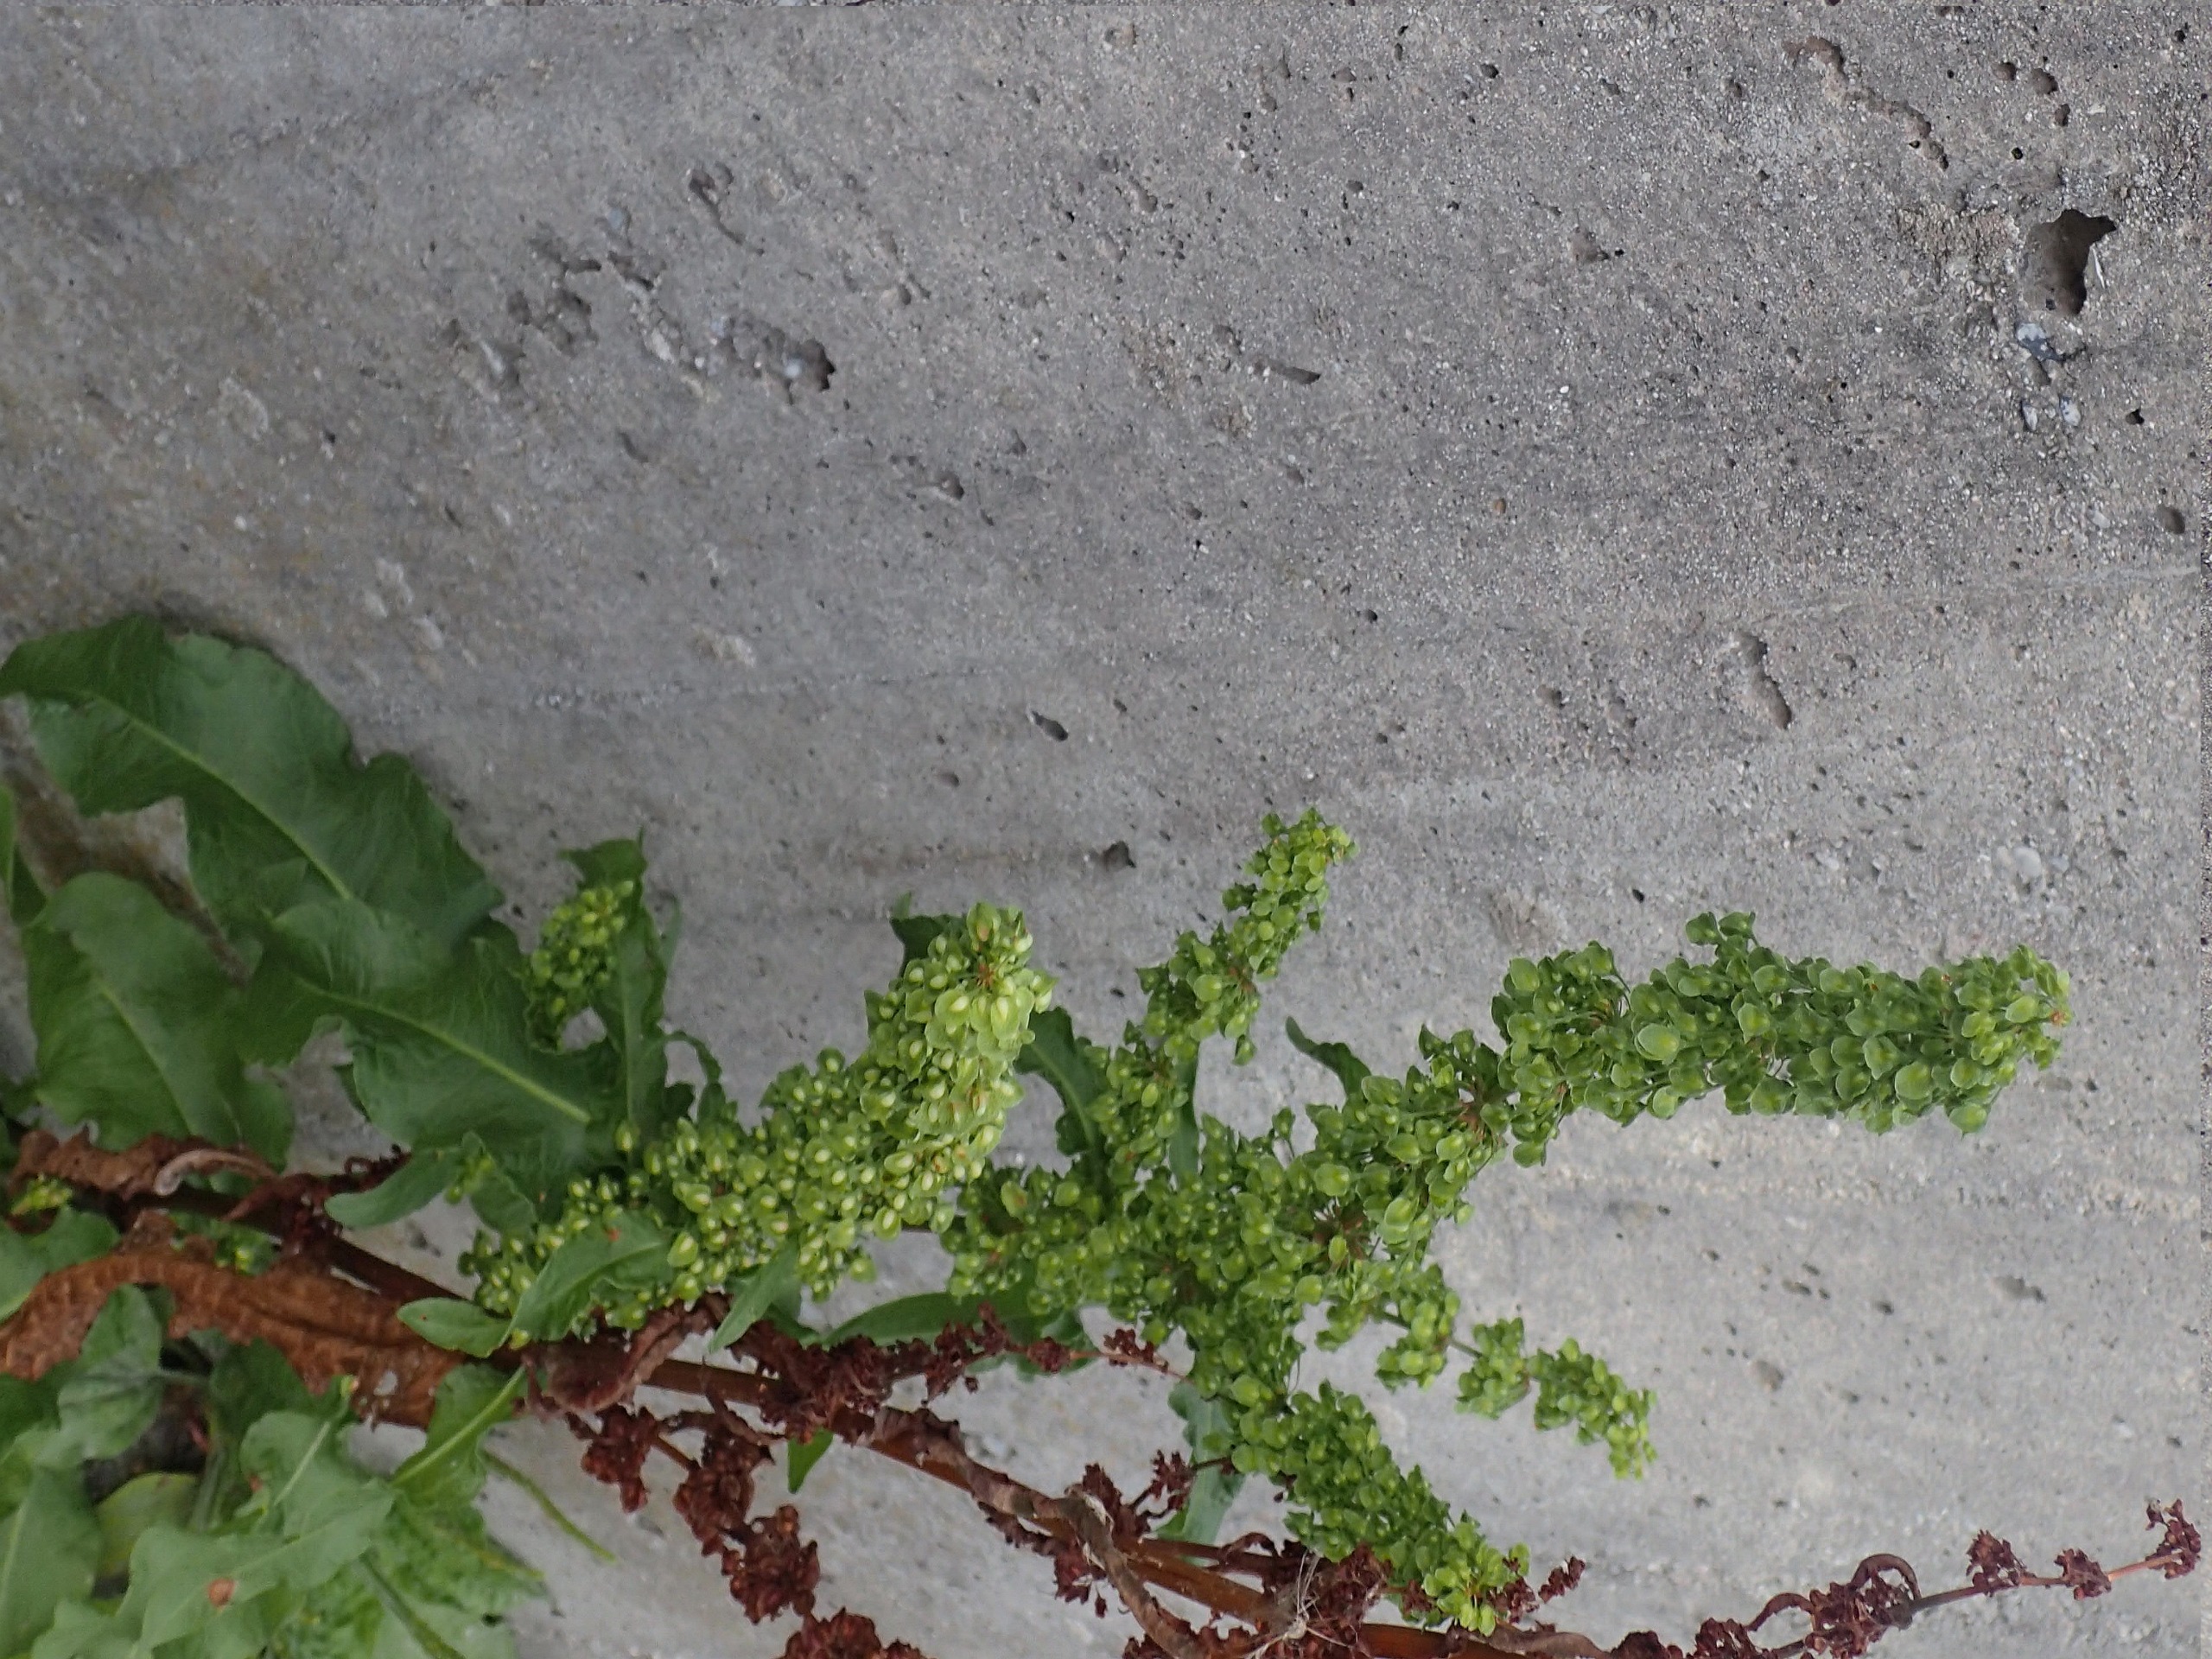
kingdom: Plantae
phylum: Tracheophyta
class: Magnoliopsida
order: Caryophyllales
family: Polygonaceae
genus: Rumex
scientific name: Rumex crispus
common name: Kruset skræppe
